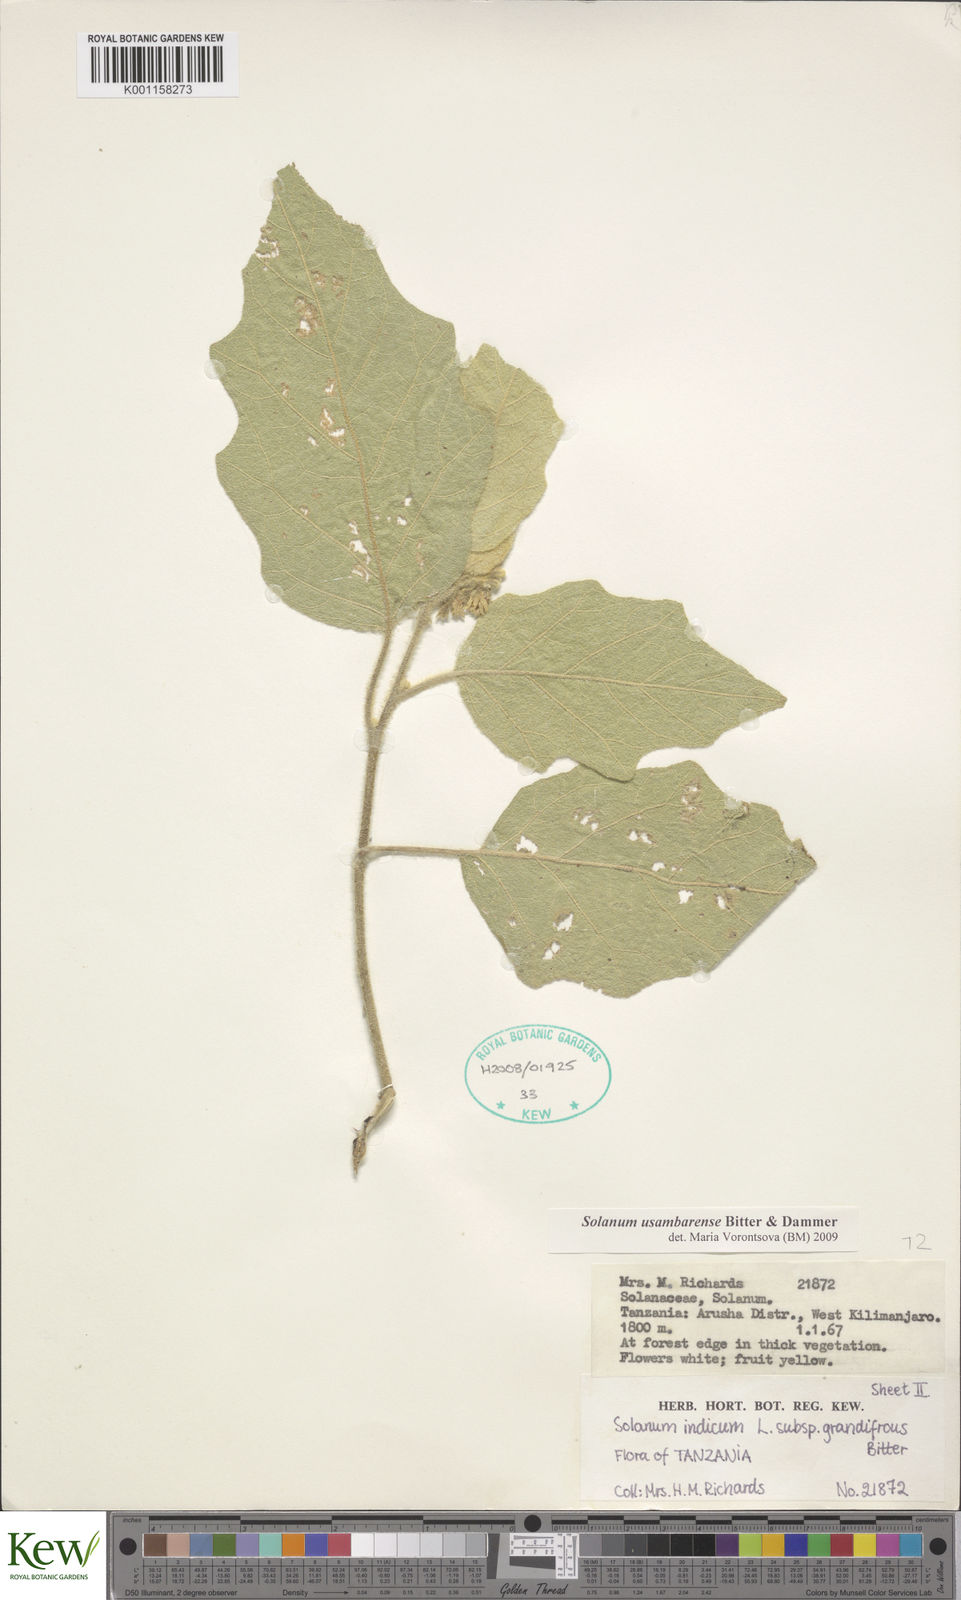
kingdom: Plantae
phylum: Tracheophyta
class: Magnoliopsida
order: Solanales
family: Solanaceae
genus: Solanum
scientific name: Solanum usambarense
